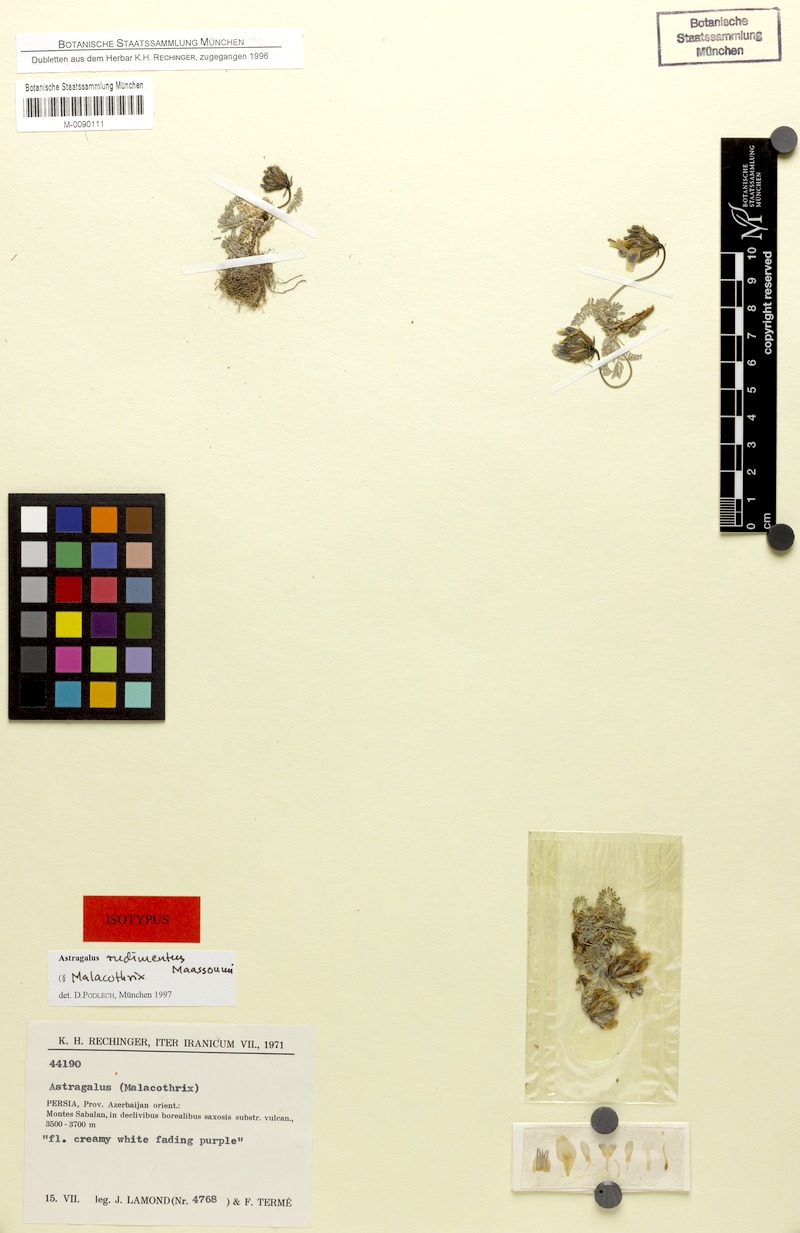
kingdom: Plantae
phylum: Tracheophyta
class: Magnoliopsida
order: Fabales
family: Fabaceae
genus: Astragalus
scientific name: Astragalus rudimentus
